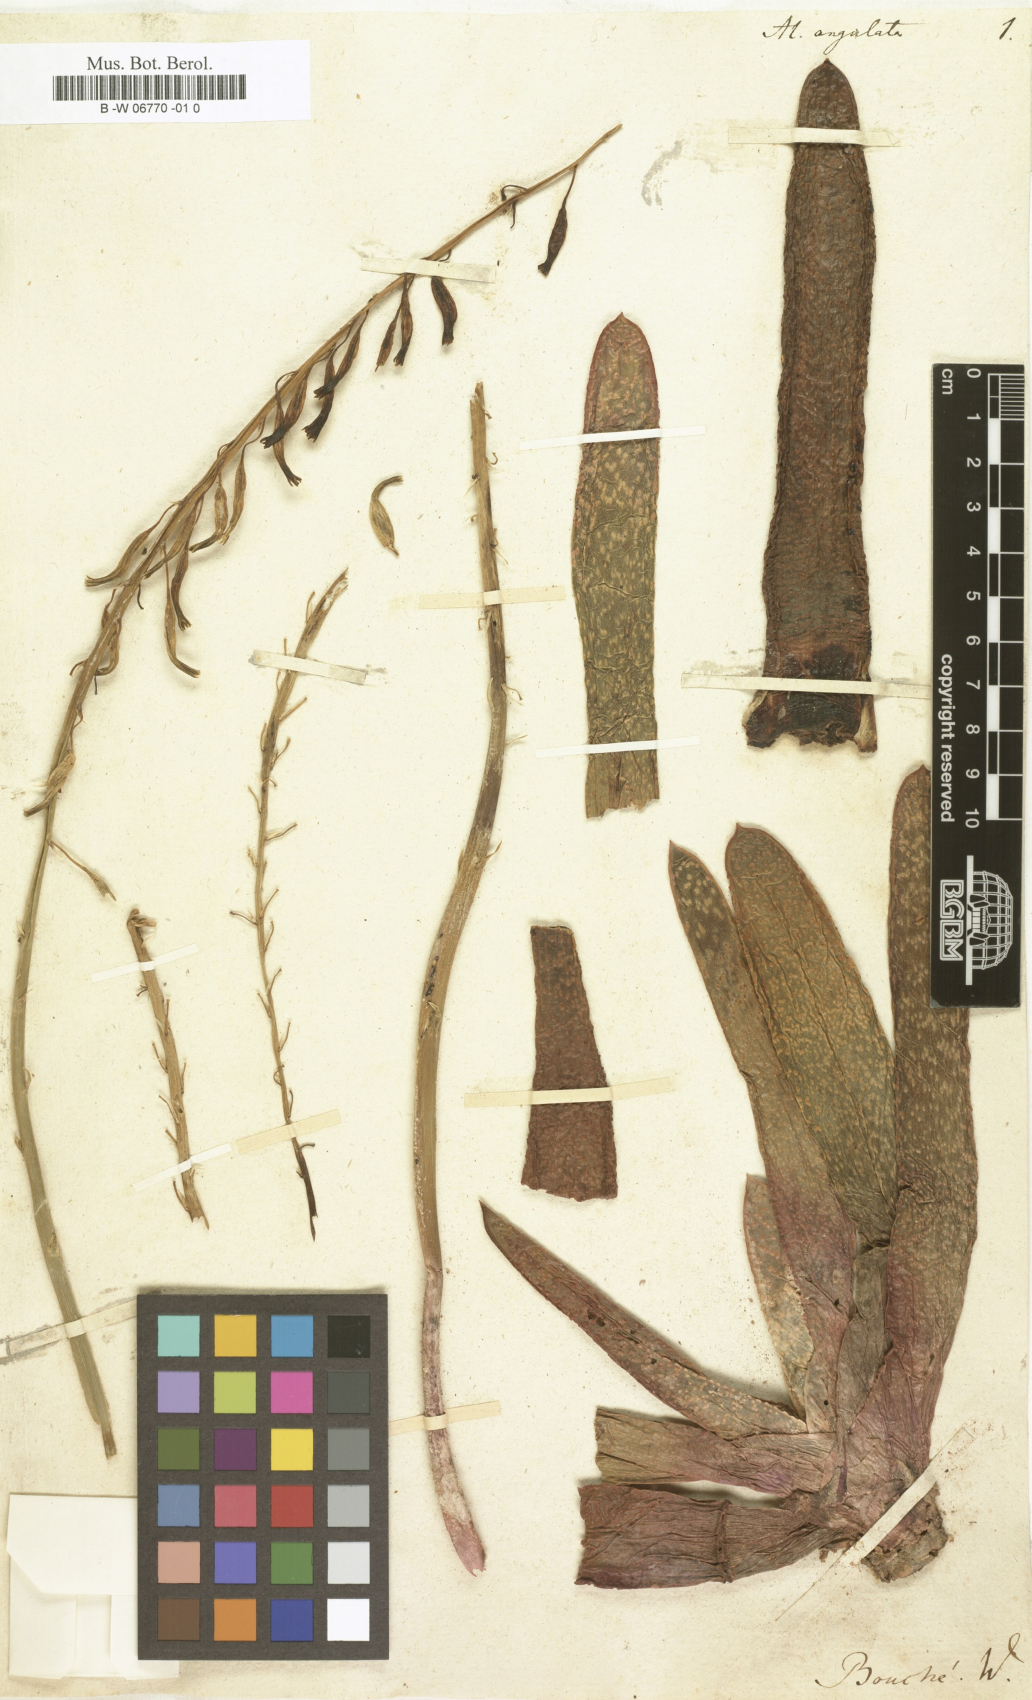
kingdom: Plantae
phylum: Tracheophyta
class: Liliopsida
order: Asparagales
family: Asphodelaceae
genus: Gasteria
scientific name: Gasteria carinata
